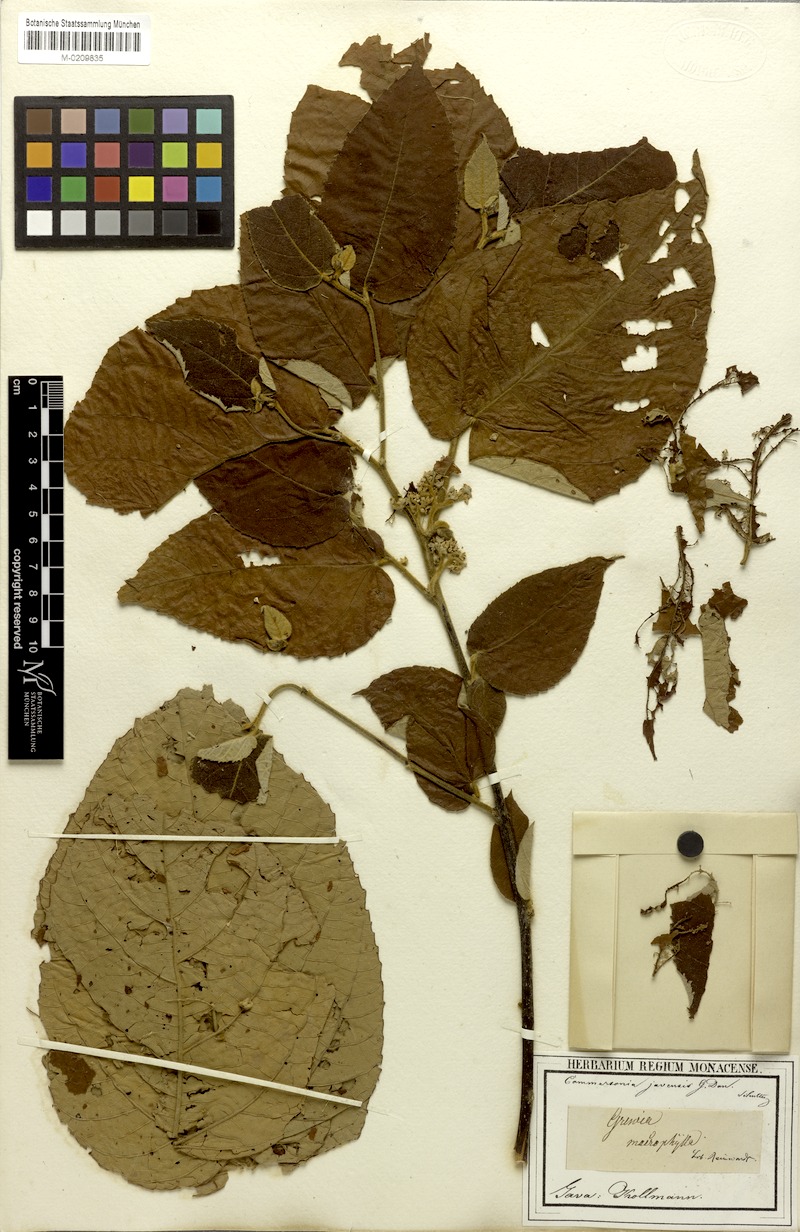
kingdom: Plantae
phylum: Tracheophyta
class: Magnoliopsida
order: Malvales
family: Malvaceae
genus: Commersonia
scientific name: Commersonia bartramia
